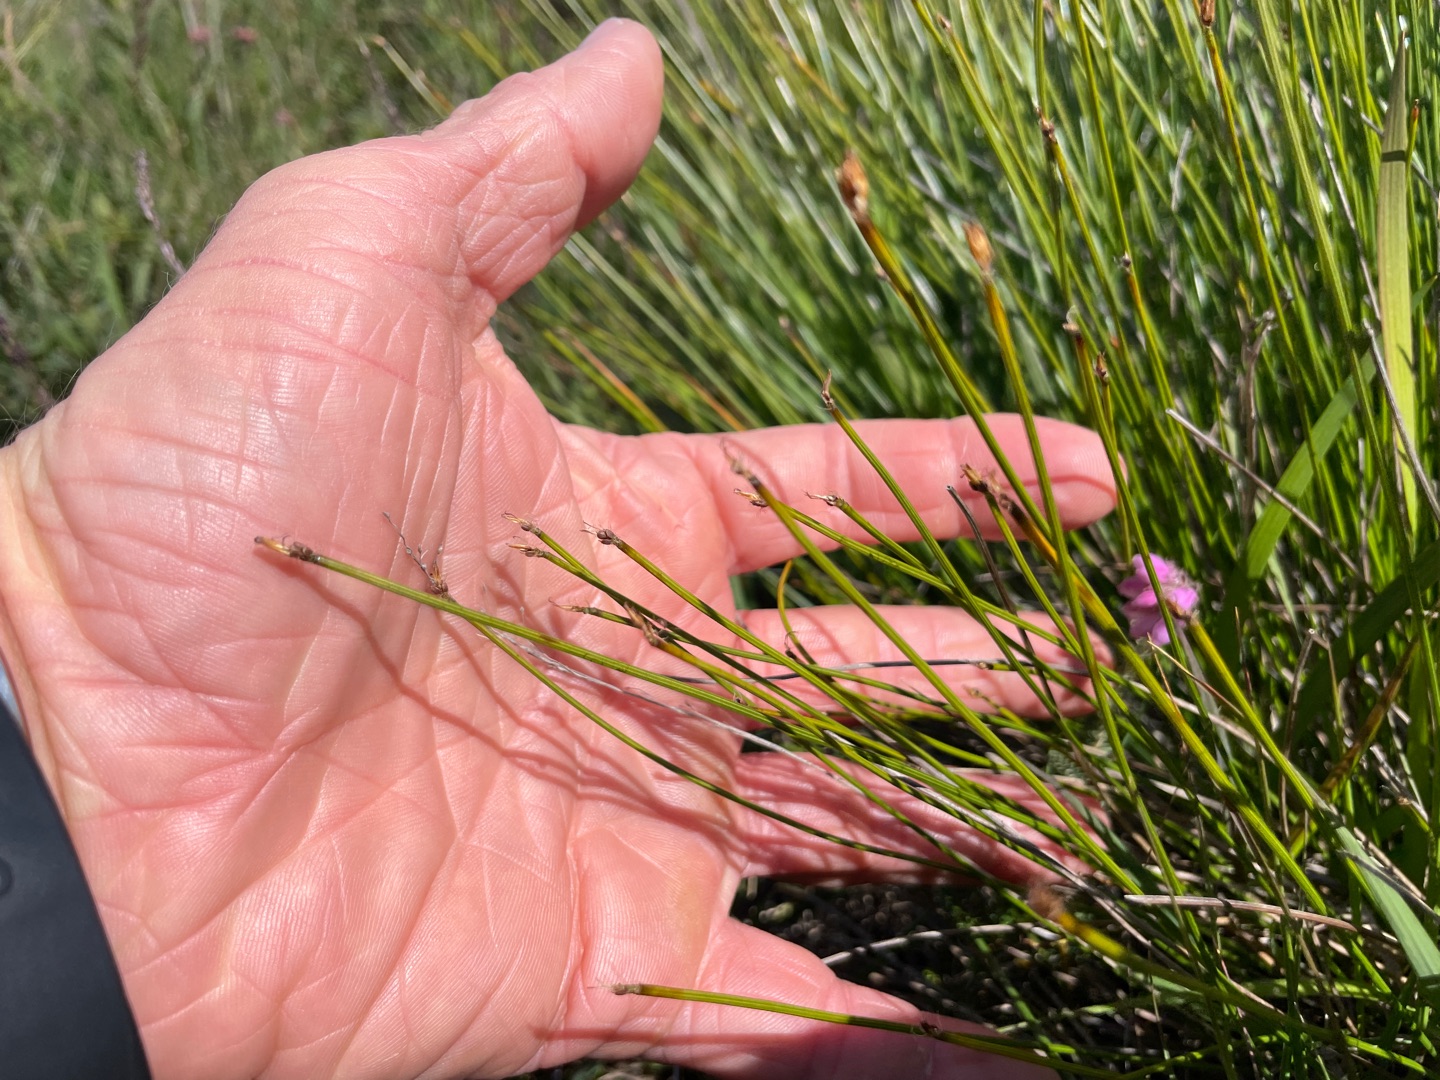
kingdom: Plantae
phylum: Tracheophyta
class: Liliopsida
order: Poales
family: Cyperaceae
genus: Trichophorum
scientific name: Trichophorum cespitosum
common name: Tuekogleaks
